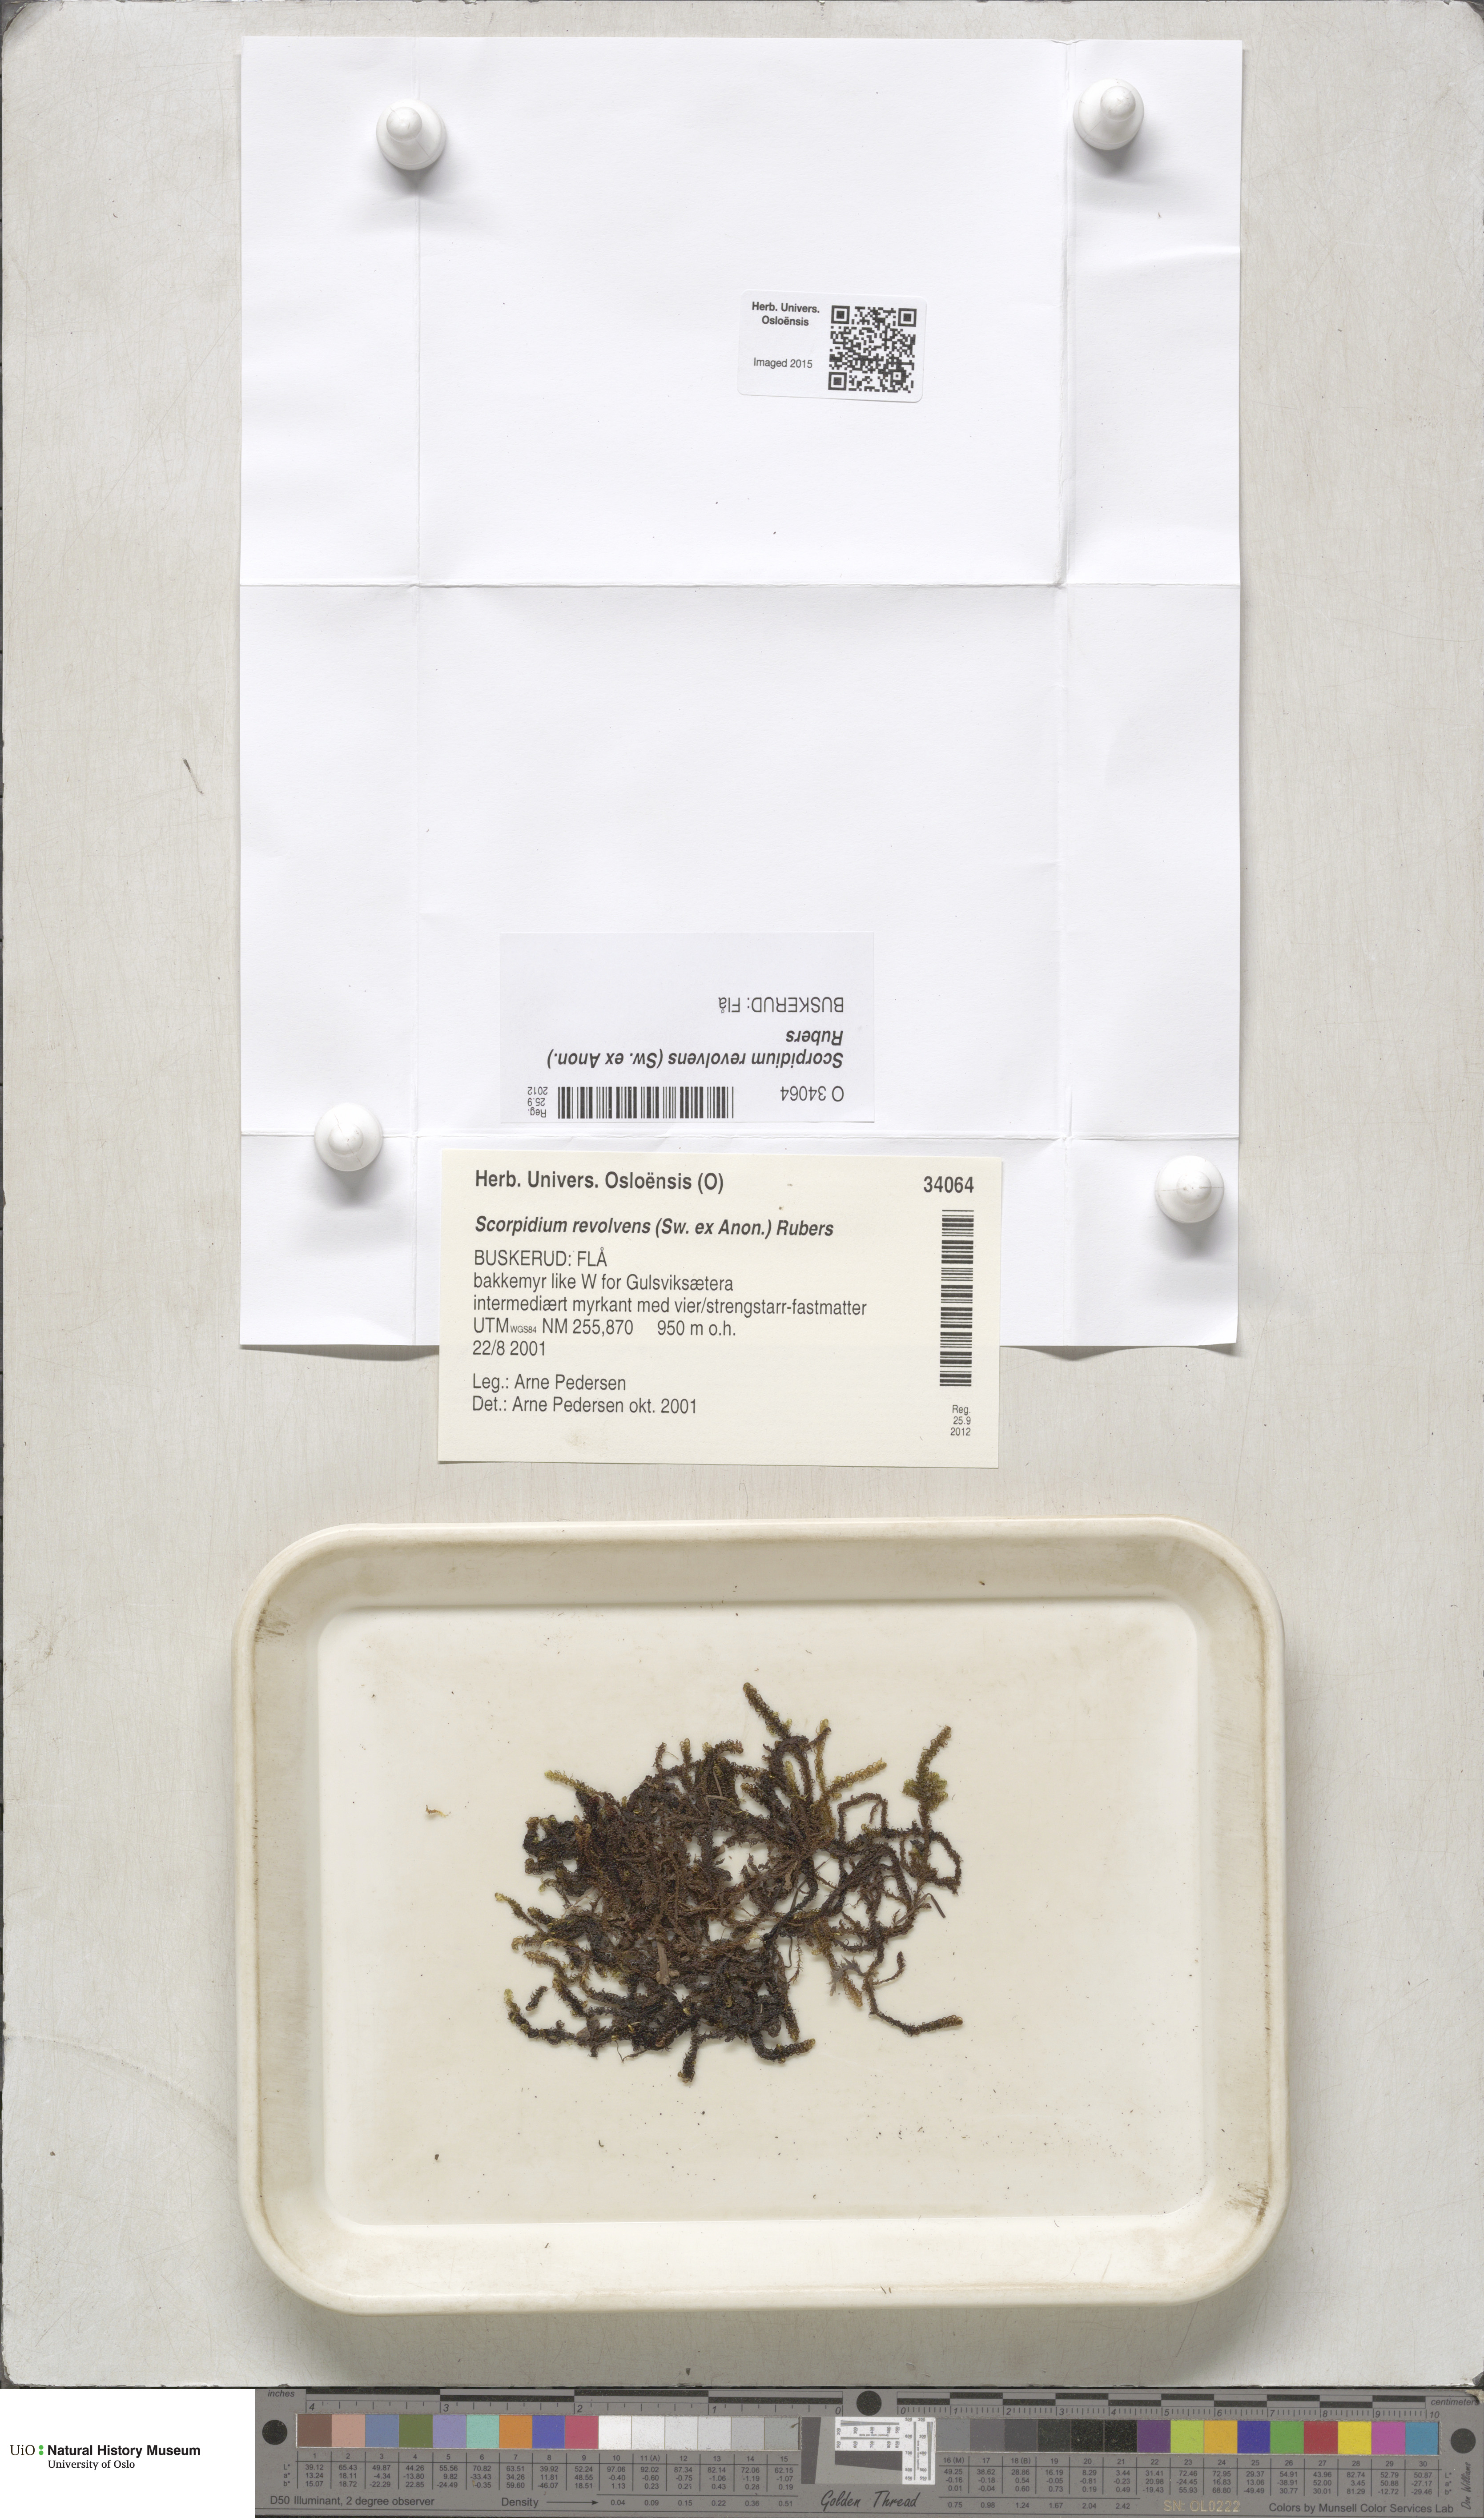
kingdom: Plantae
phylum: Bryophyta
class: Bryopsida
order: Hypnales
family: Scorpidiaceae
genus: Scorpidium
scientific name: Scorpidium revolvens
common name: Rusty hook moss
